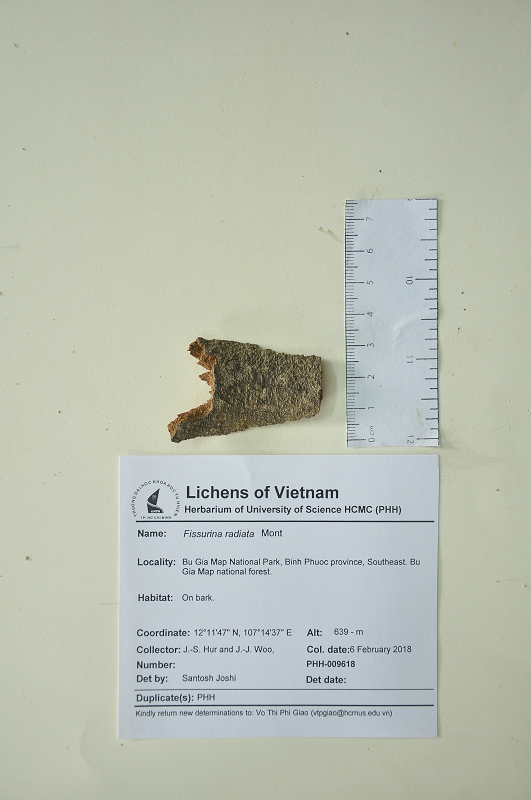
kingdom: Fungi
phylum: Ascomycota
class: Lecanoromycetes
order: Ostropales
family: Graphidaceae
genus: Fissurina
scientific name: Fissurina radiata
